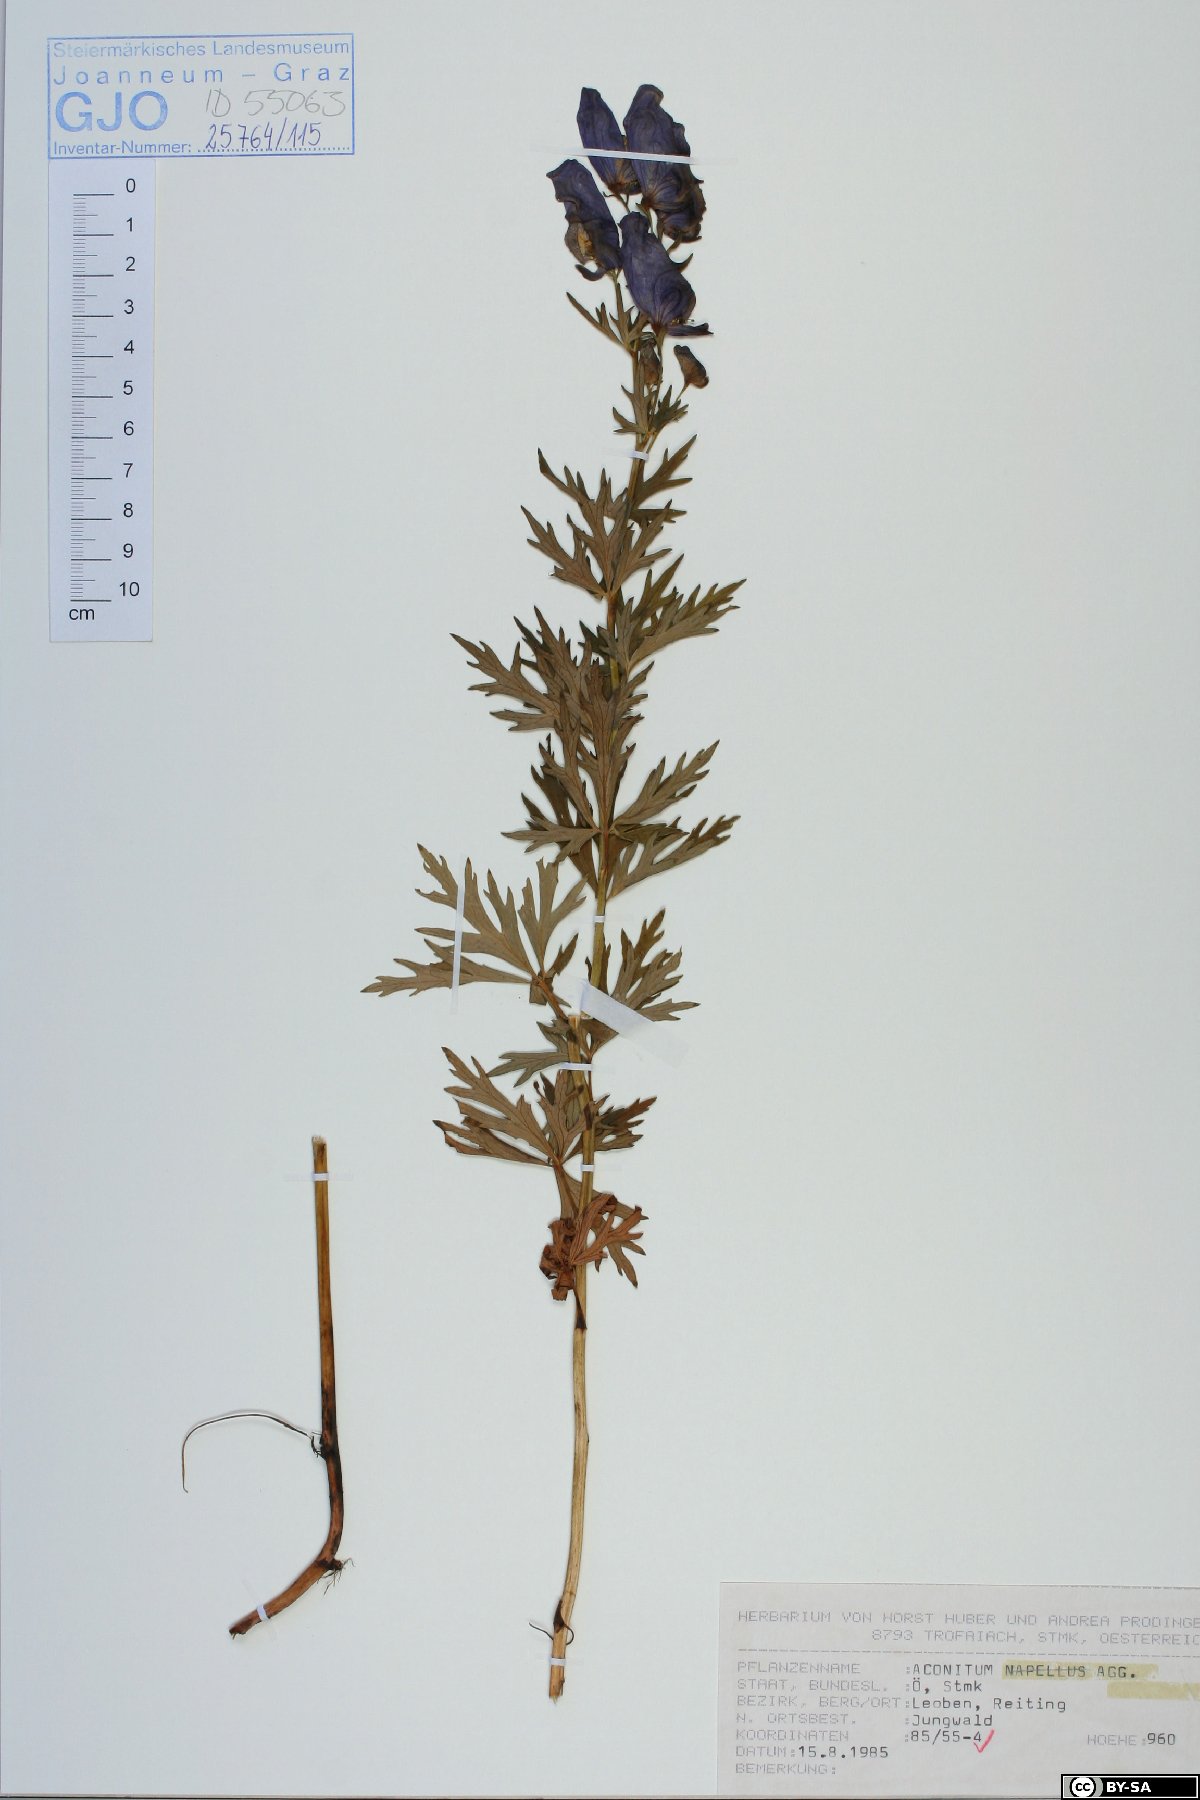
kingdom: Plantae
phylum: Tracheophyta
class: Magnoliopsida
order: Ranunculales
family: Ranunculaceae
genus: Aconitum
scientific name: Aconitum napellus
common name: Garden monkshood
